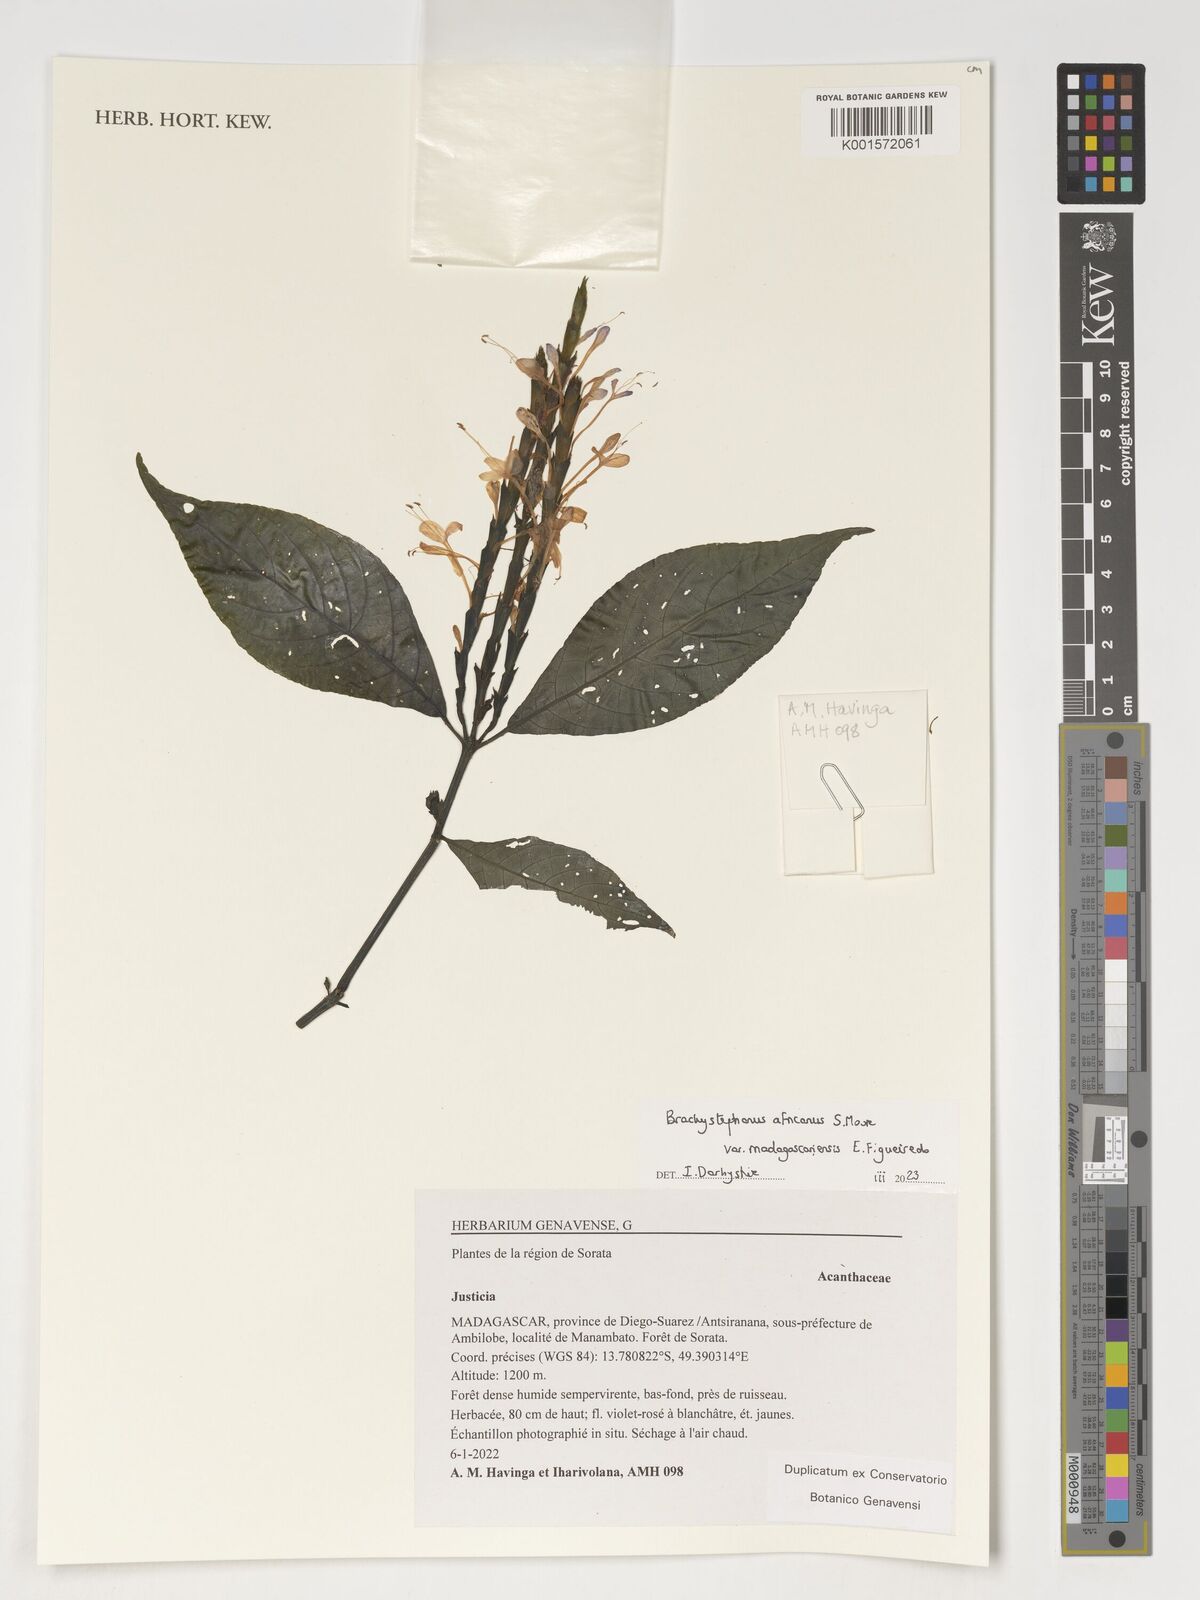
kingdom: Plantae
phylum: Tracheophyta
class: Magnoliopsida
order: Lamiales
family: Acanthaceae
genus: Justicia
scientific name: Justicia
